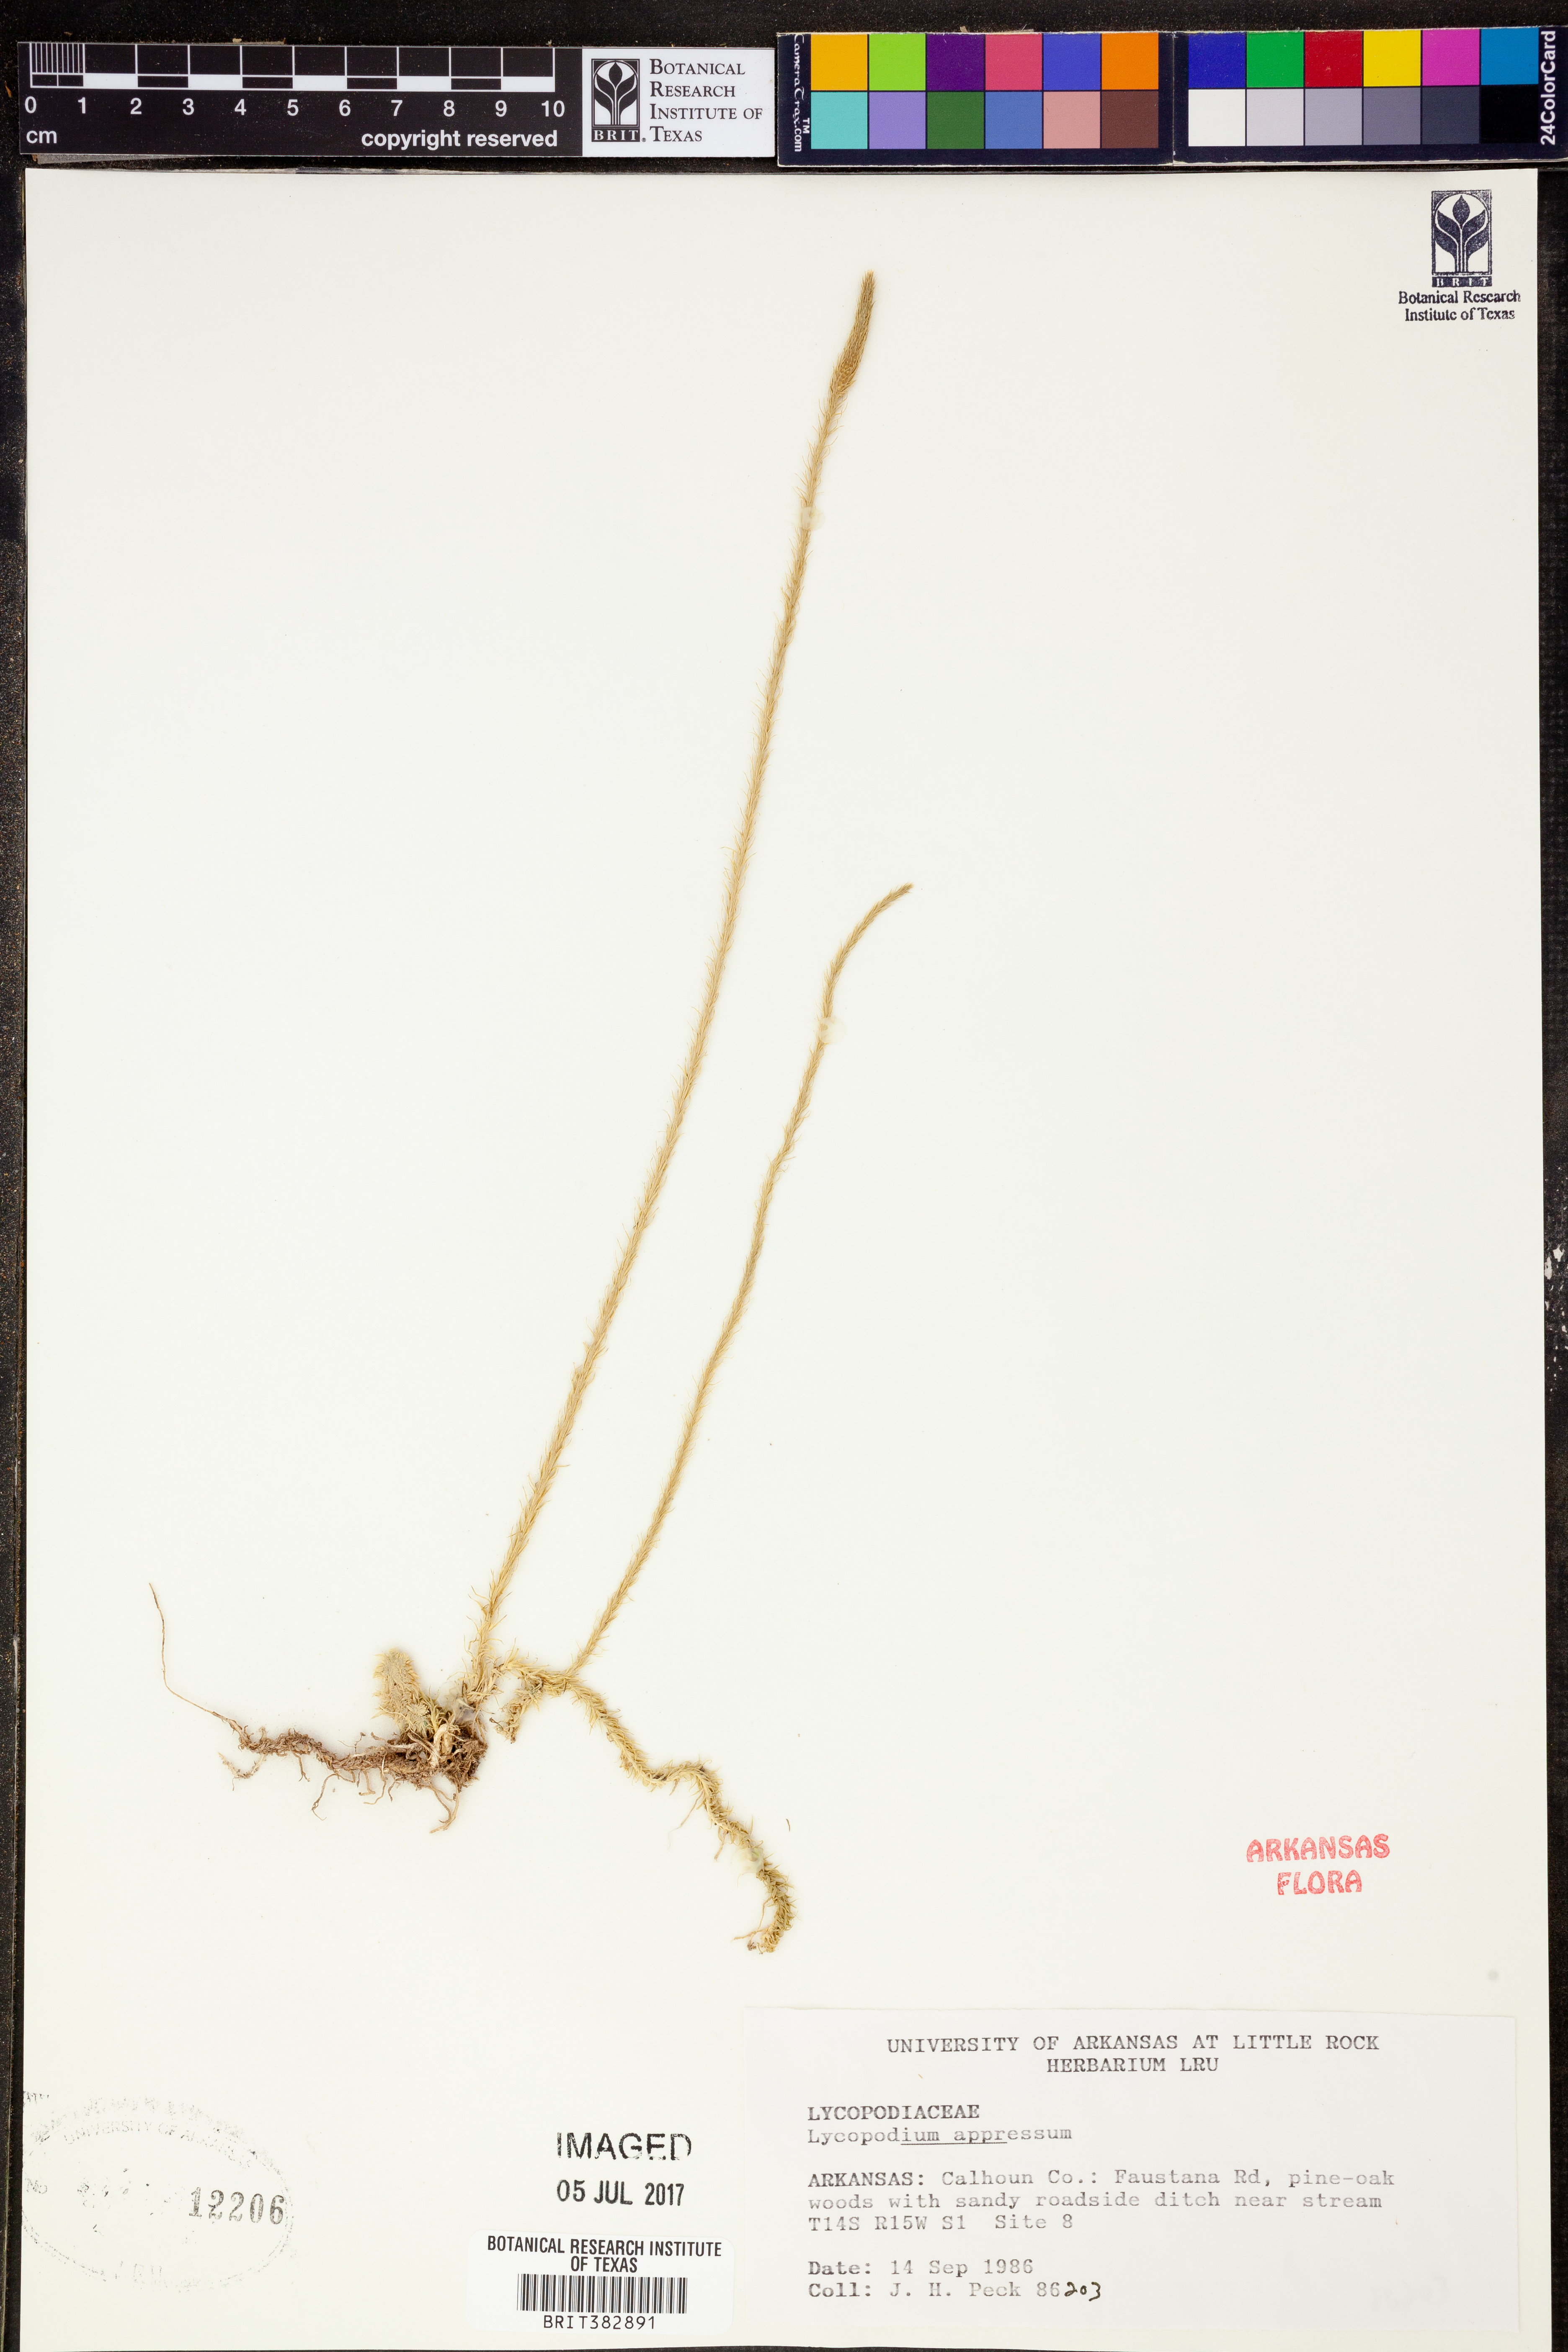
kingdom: Plantae
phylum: Tracheophyta
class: Lycopodiopsida
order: Lycopodiales
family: Lycopodiaceae
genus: Lycopodiella
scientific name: Lycopodiella appressa
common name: Appressed bog clubmoss
